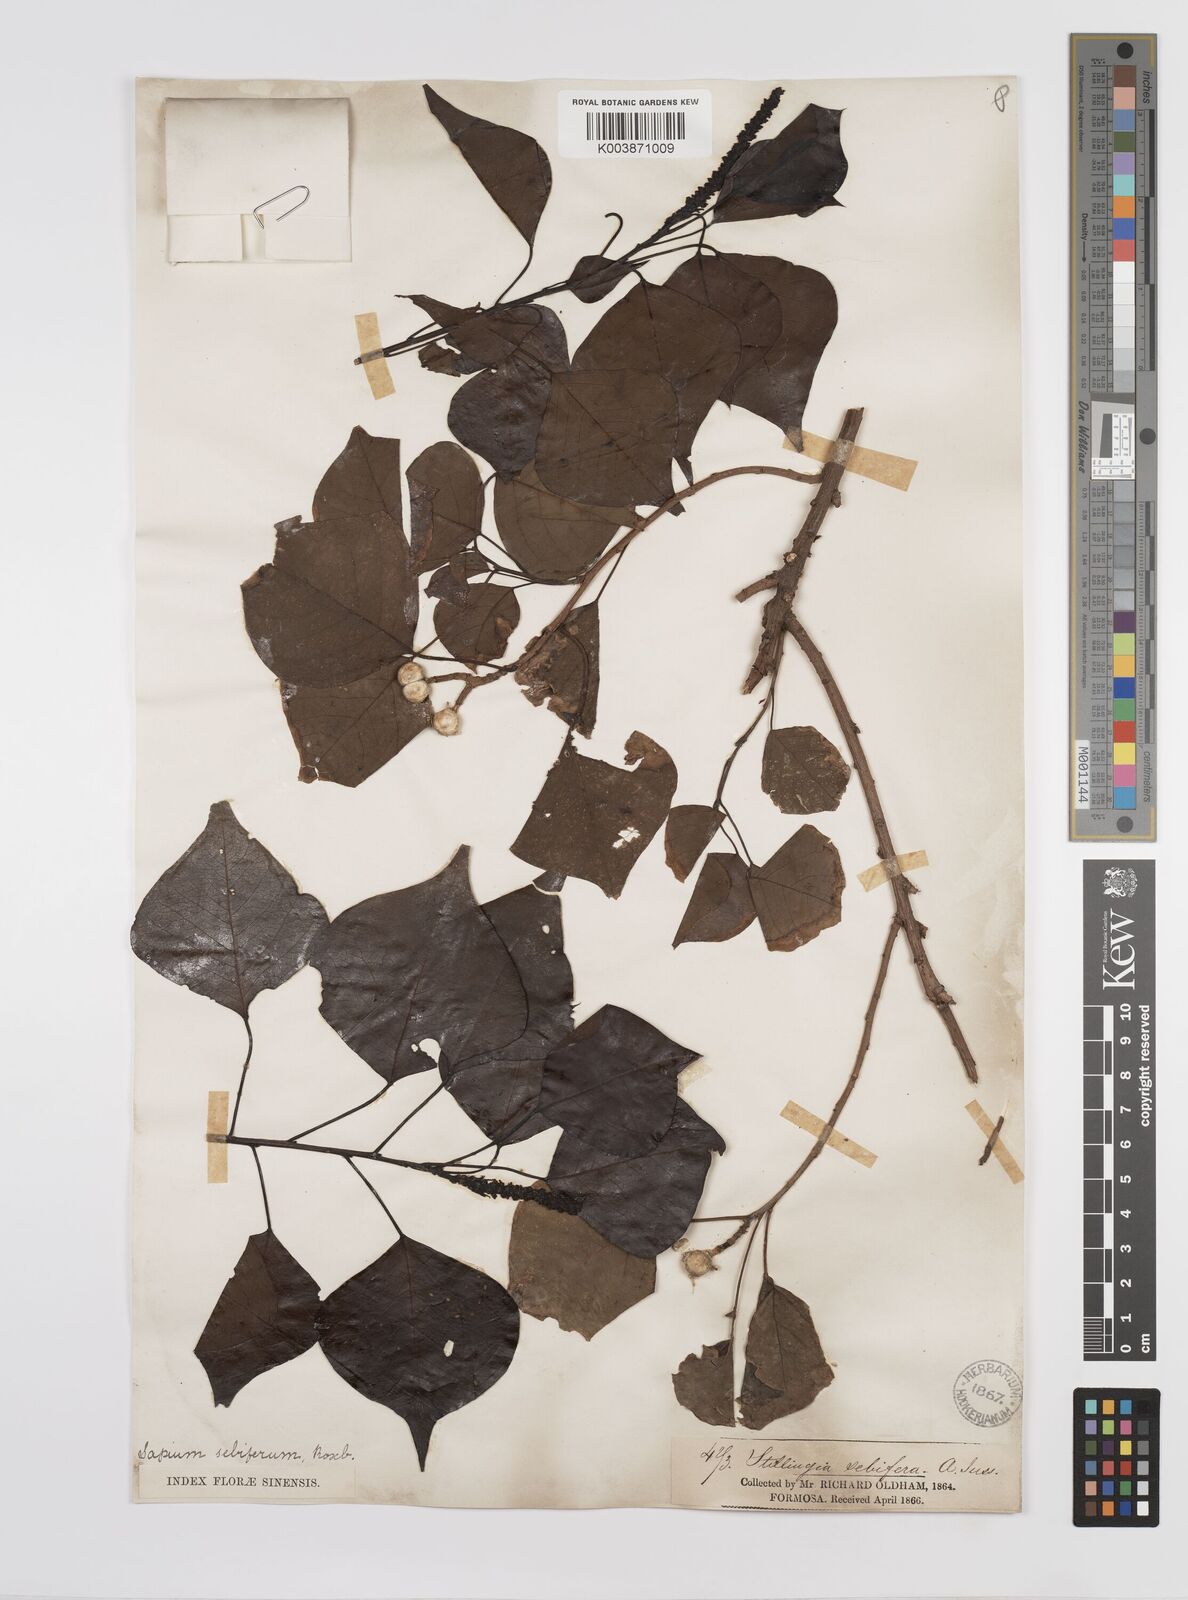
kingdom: Plantae
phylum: Tracheophyta
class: Magnoliopsida
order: Malpighiales
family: Euphorbiaceae
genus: Triadica
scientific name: Triadica sebifera
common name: Chinese tallow
